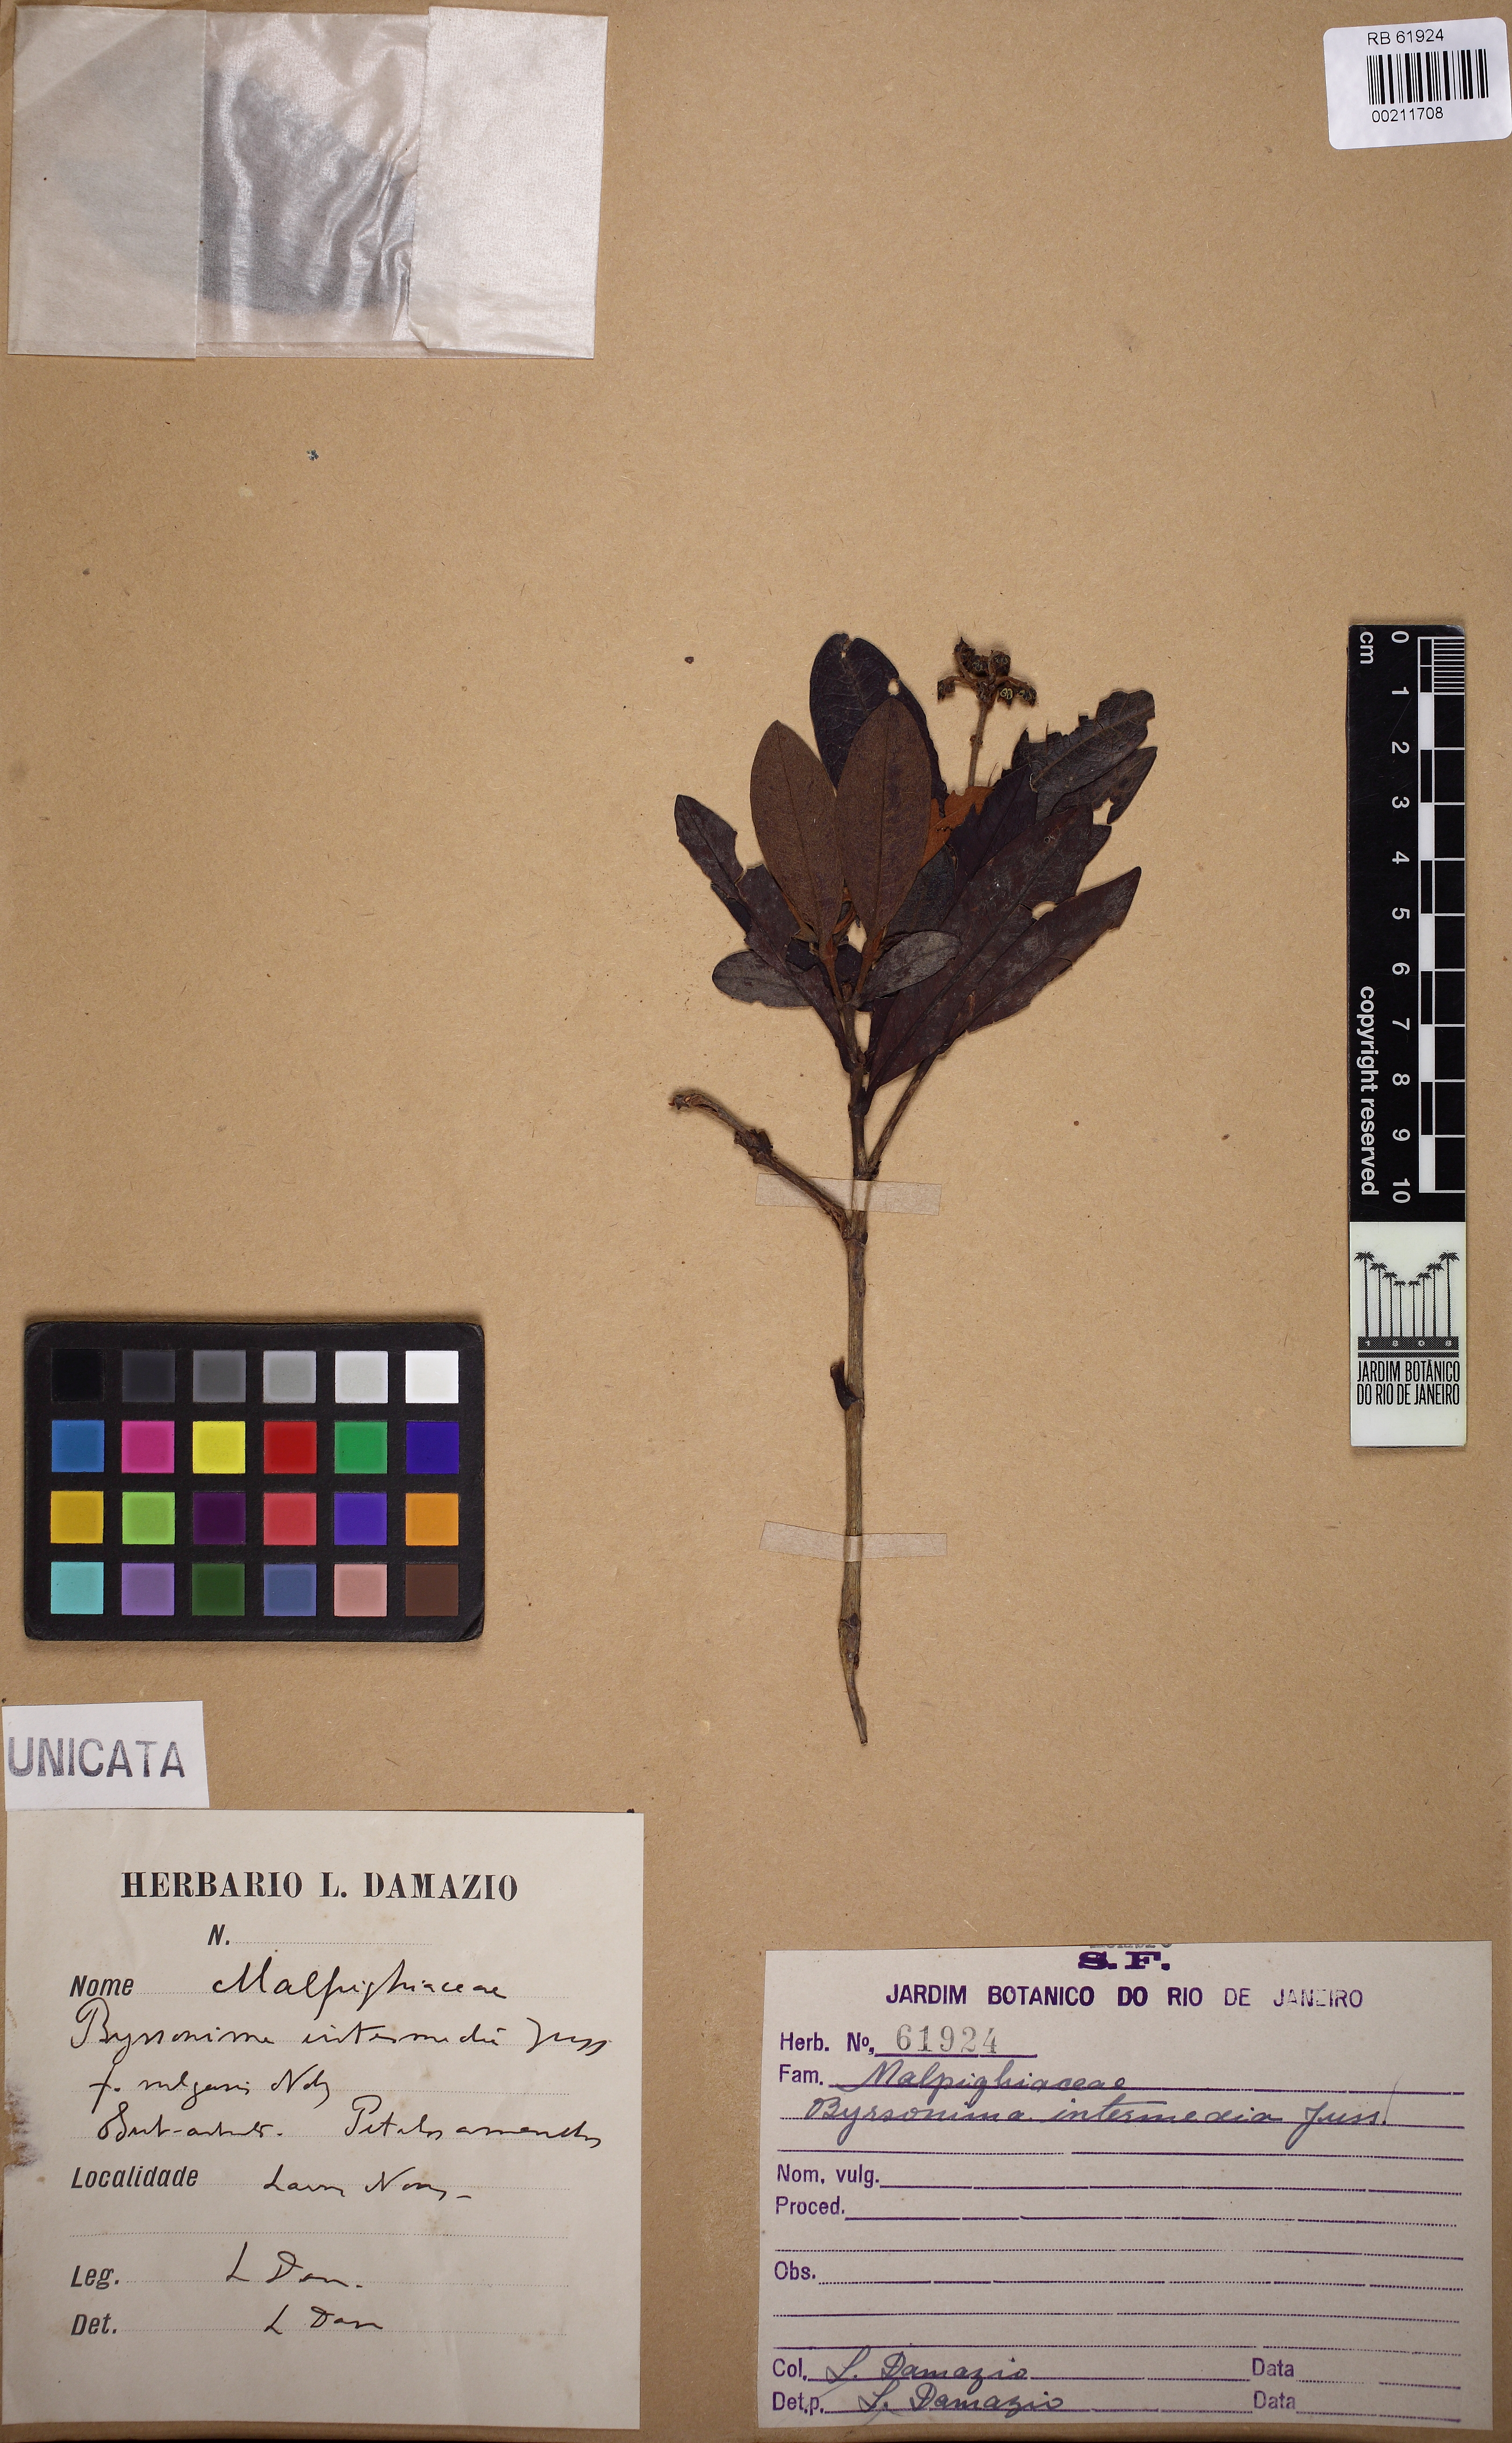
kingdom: Plantae
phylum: Tracheophyta
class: Magnoliopsida
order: Malpighiales
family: Malpighiaceae
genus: Byrsonima
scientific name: Byrsonima intermedia
